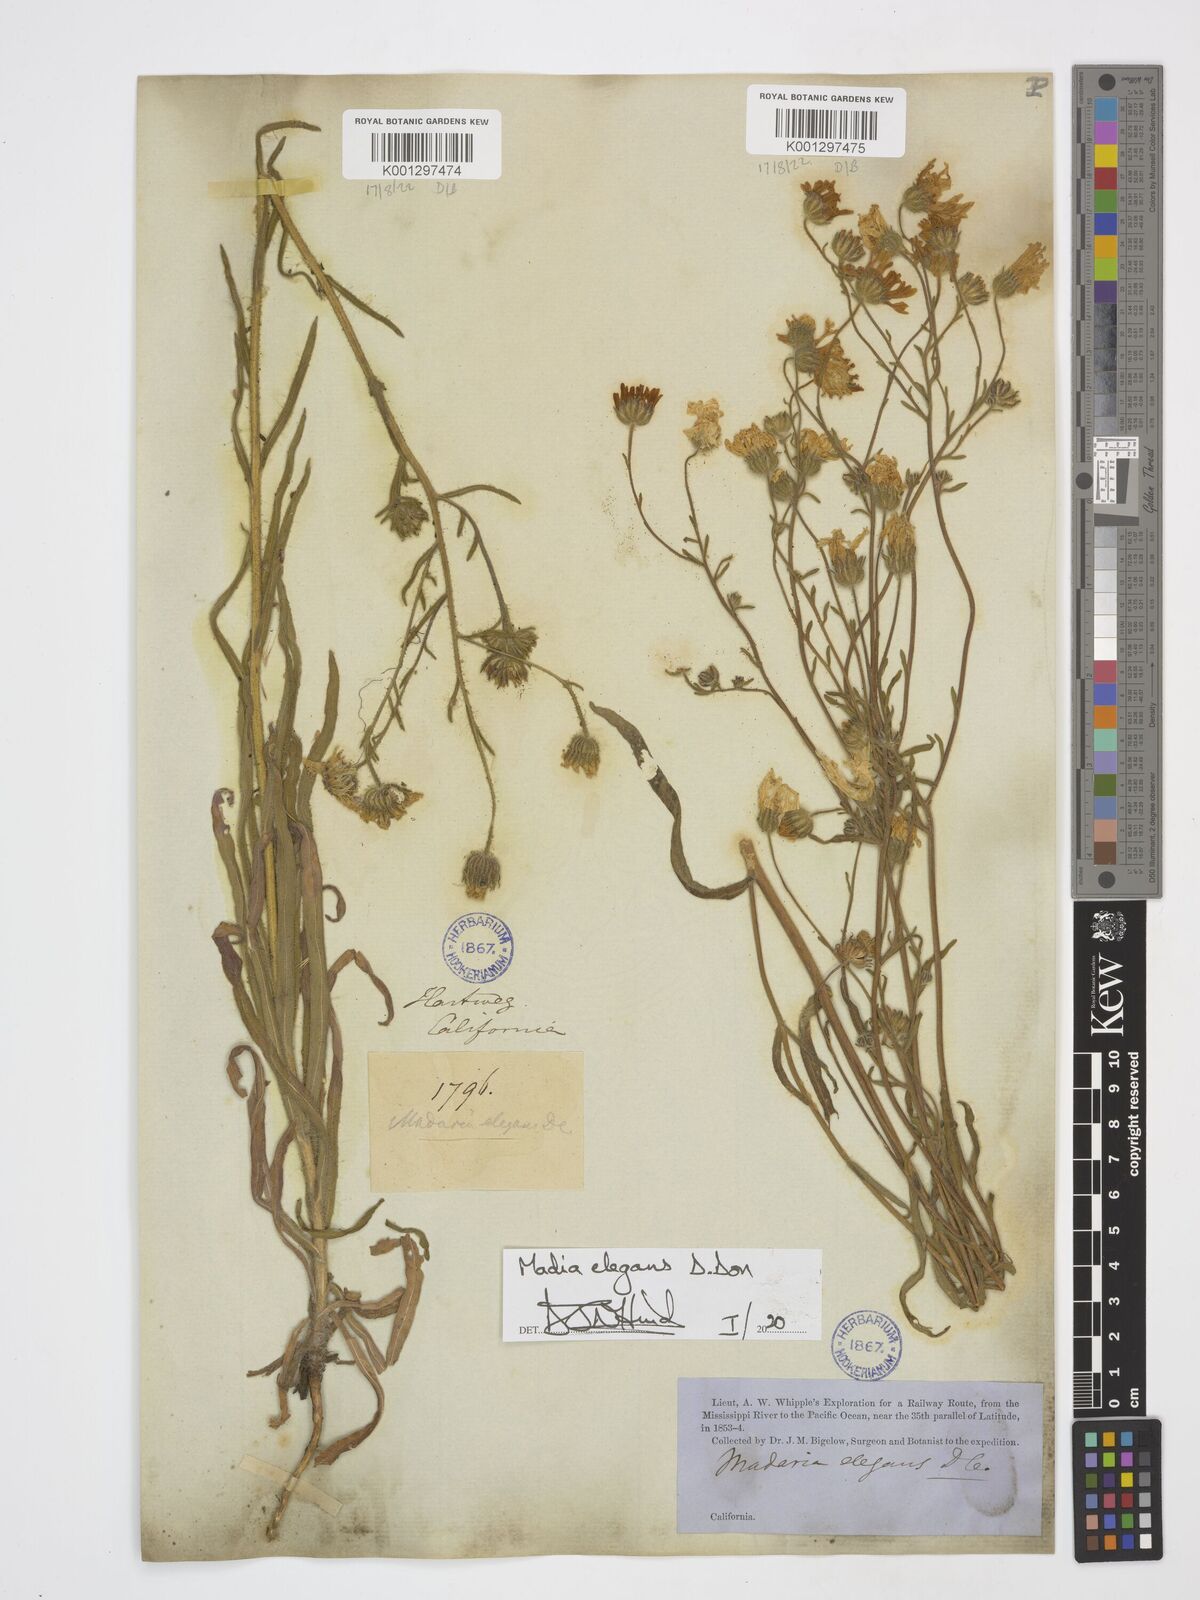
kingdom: Plantae
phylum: Tracheophyta
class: Magnoliopsida
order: Asterales
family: Asteraceae
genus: Madia
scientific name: Madia elegans
